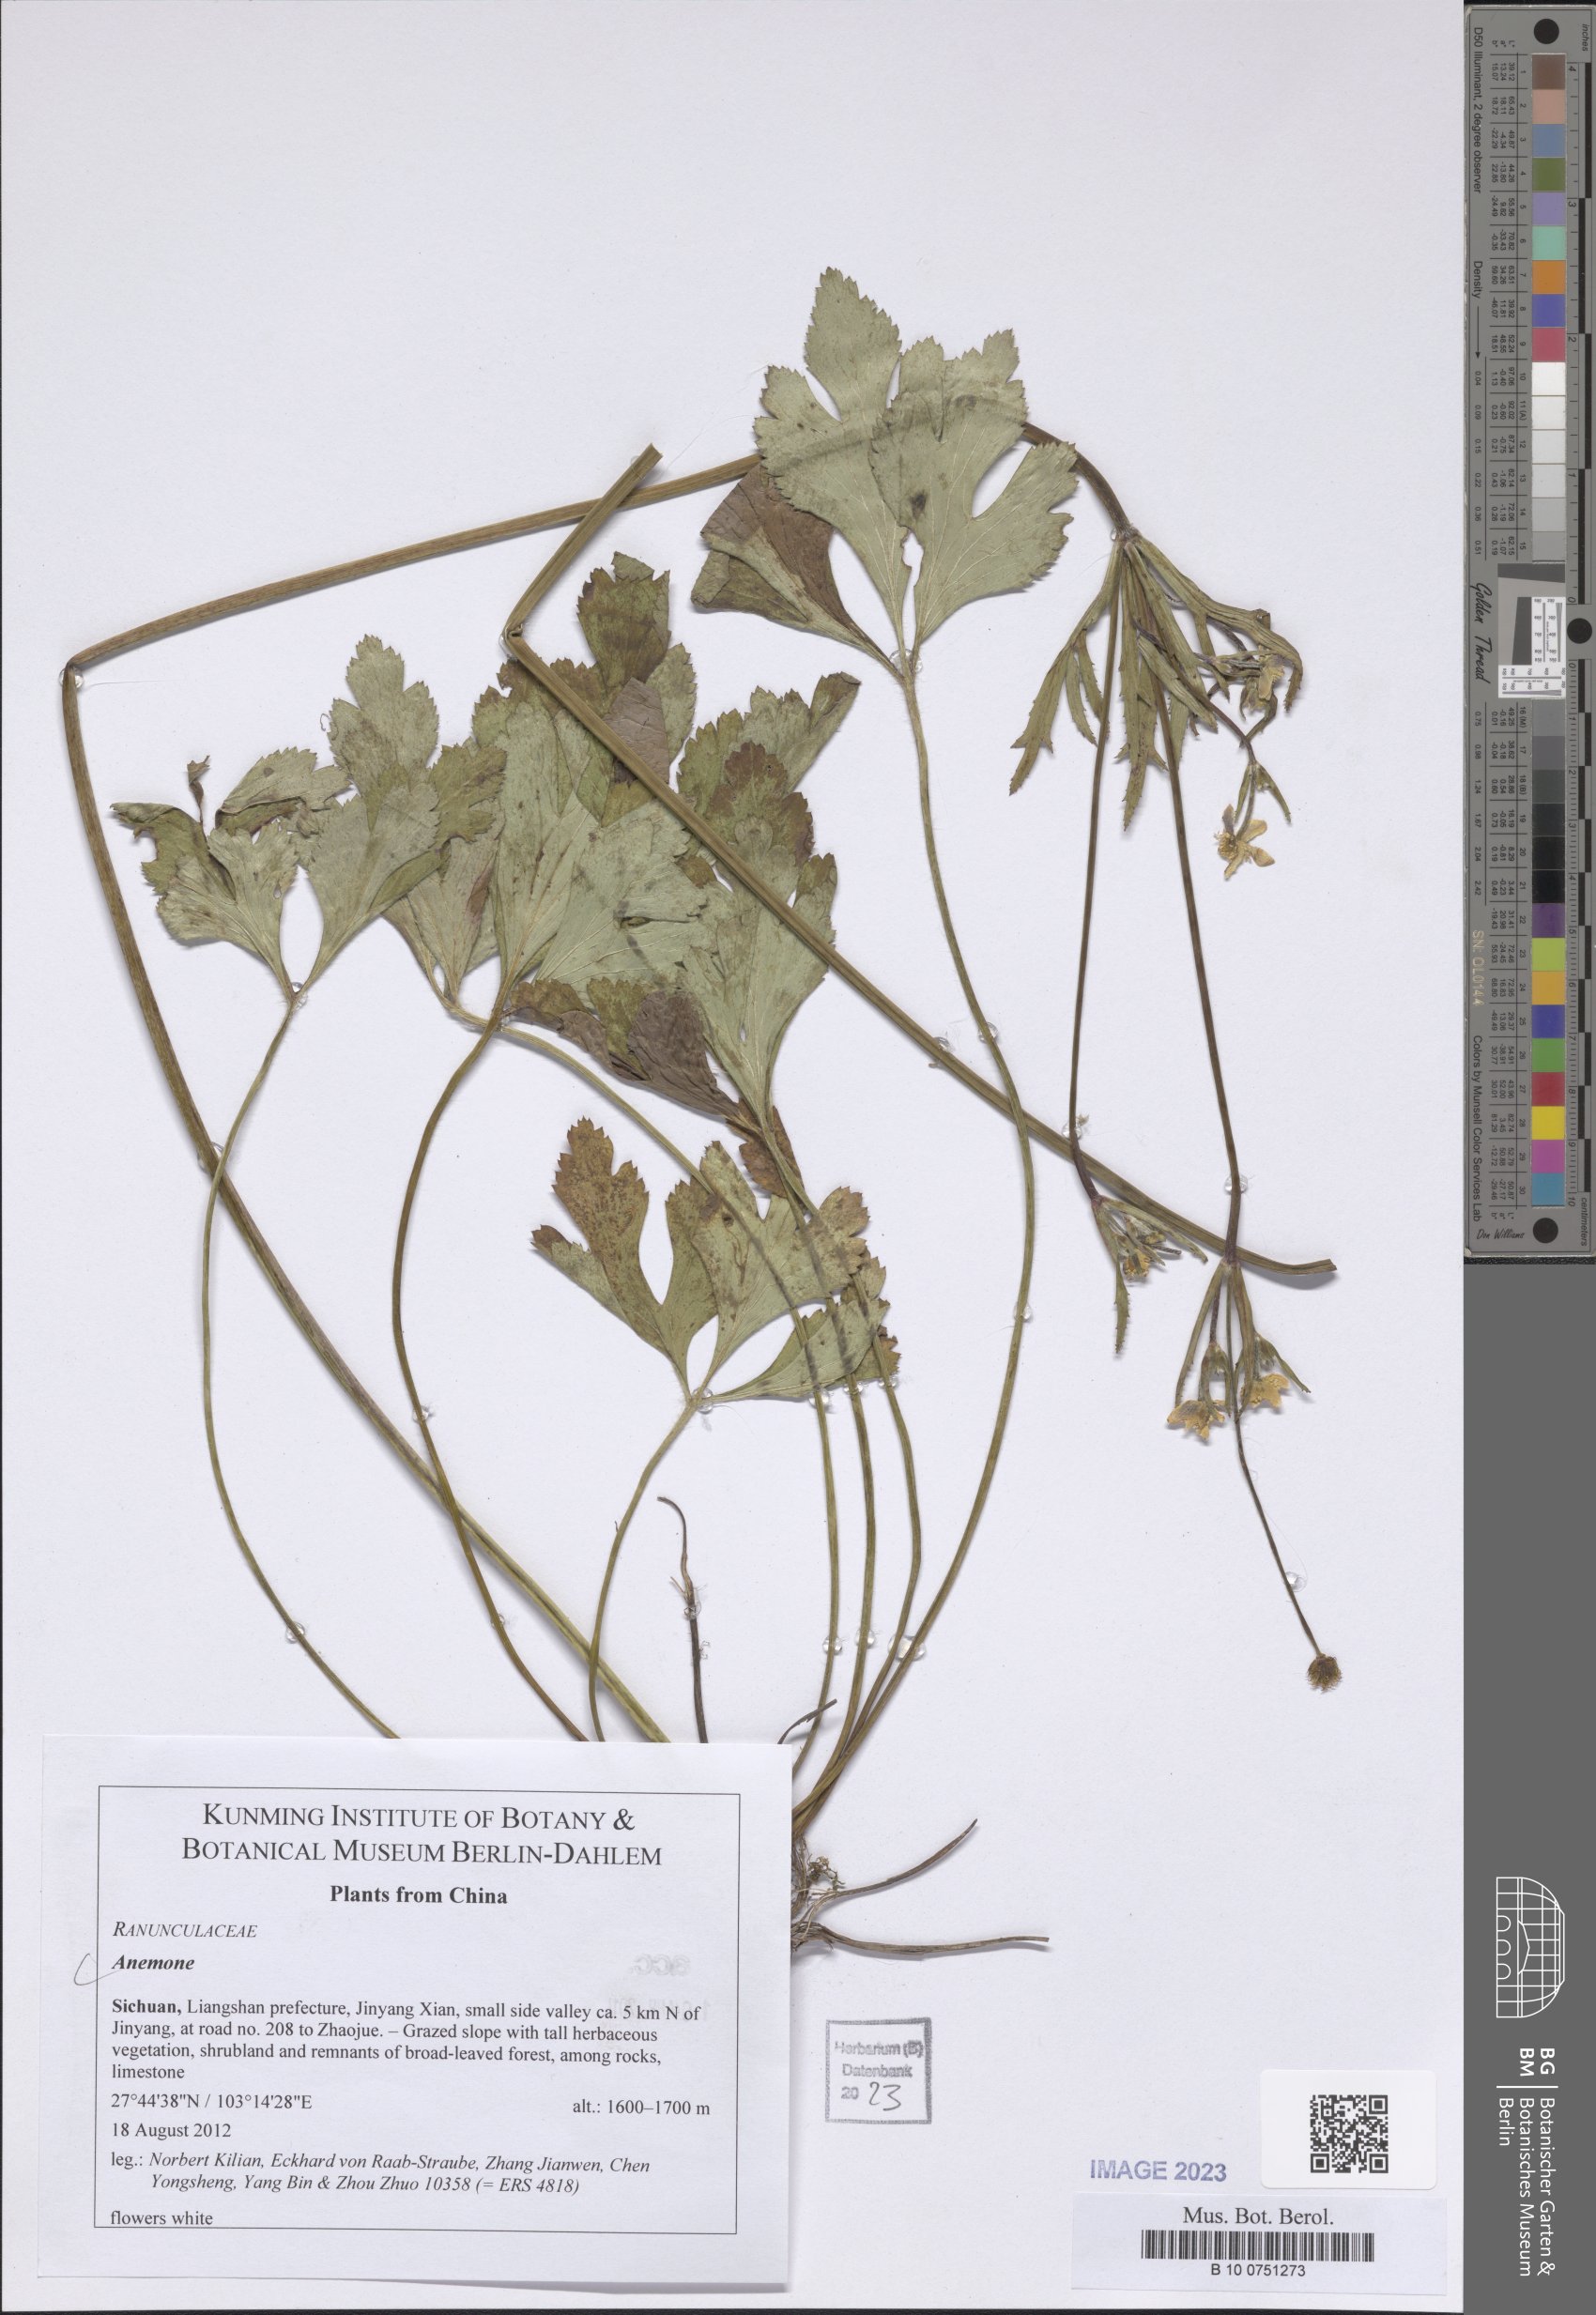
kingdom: Plantae
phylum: Tracheophyta
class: Magnoliopsida
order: Ranunculales
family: Ranunculaceae
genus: Anemone
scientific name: Anemone
